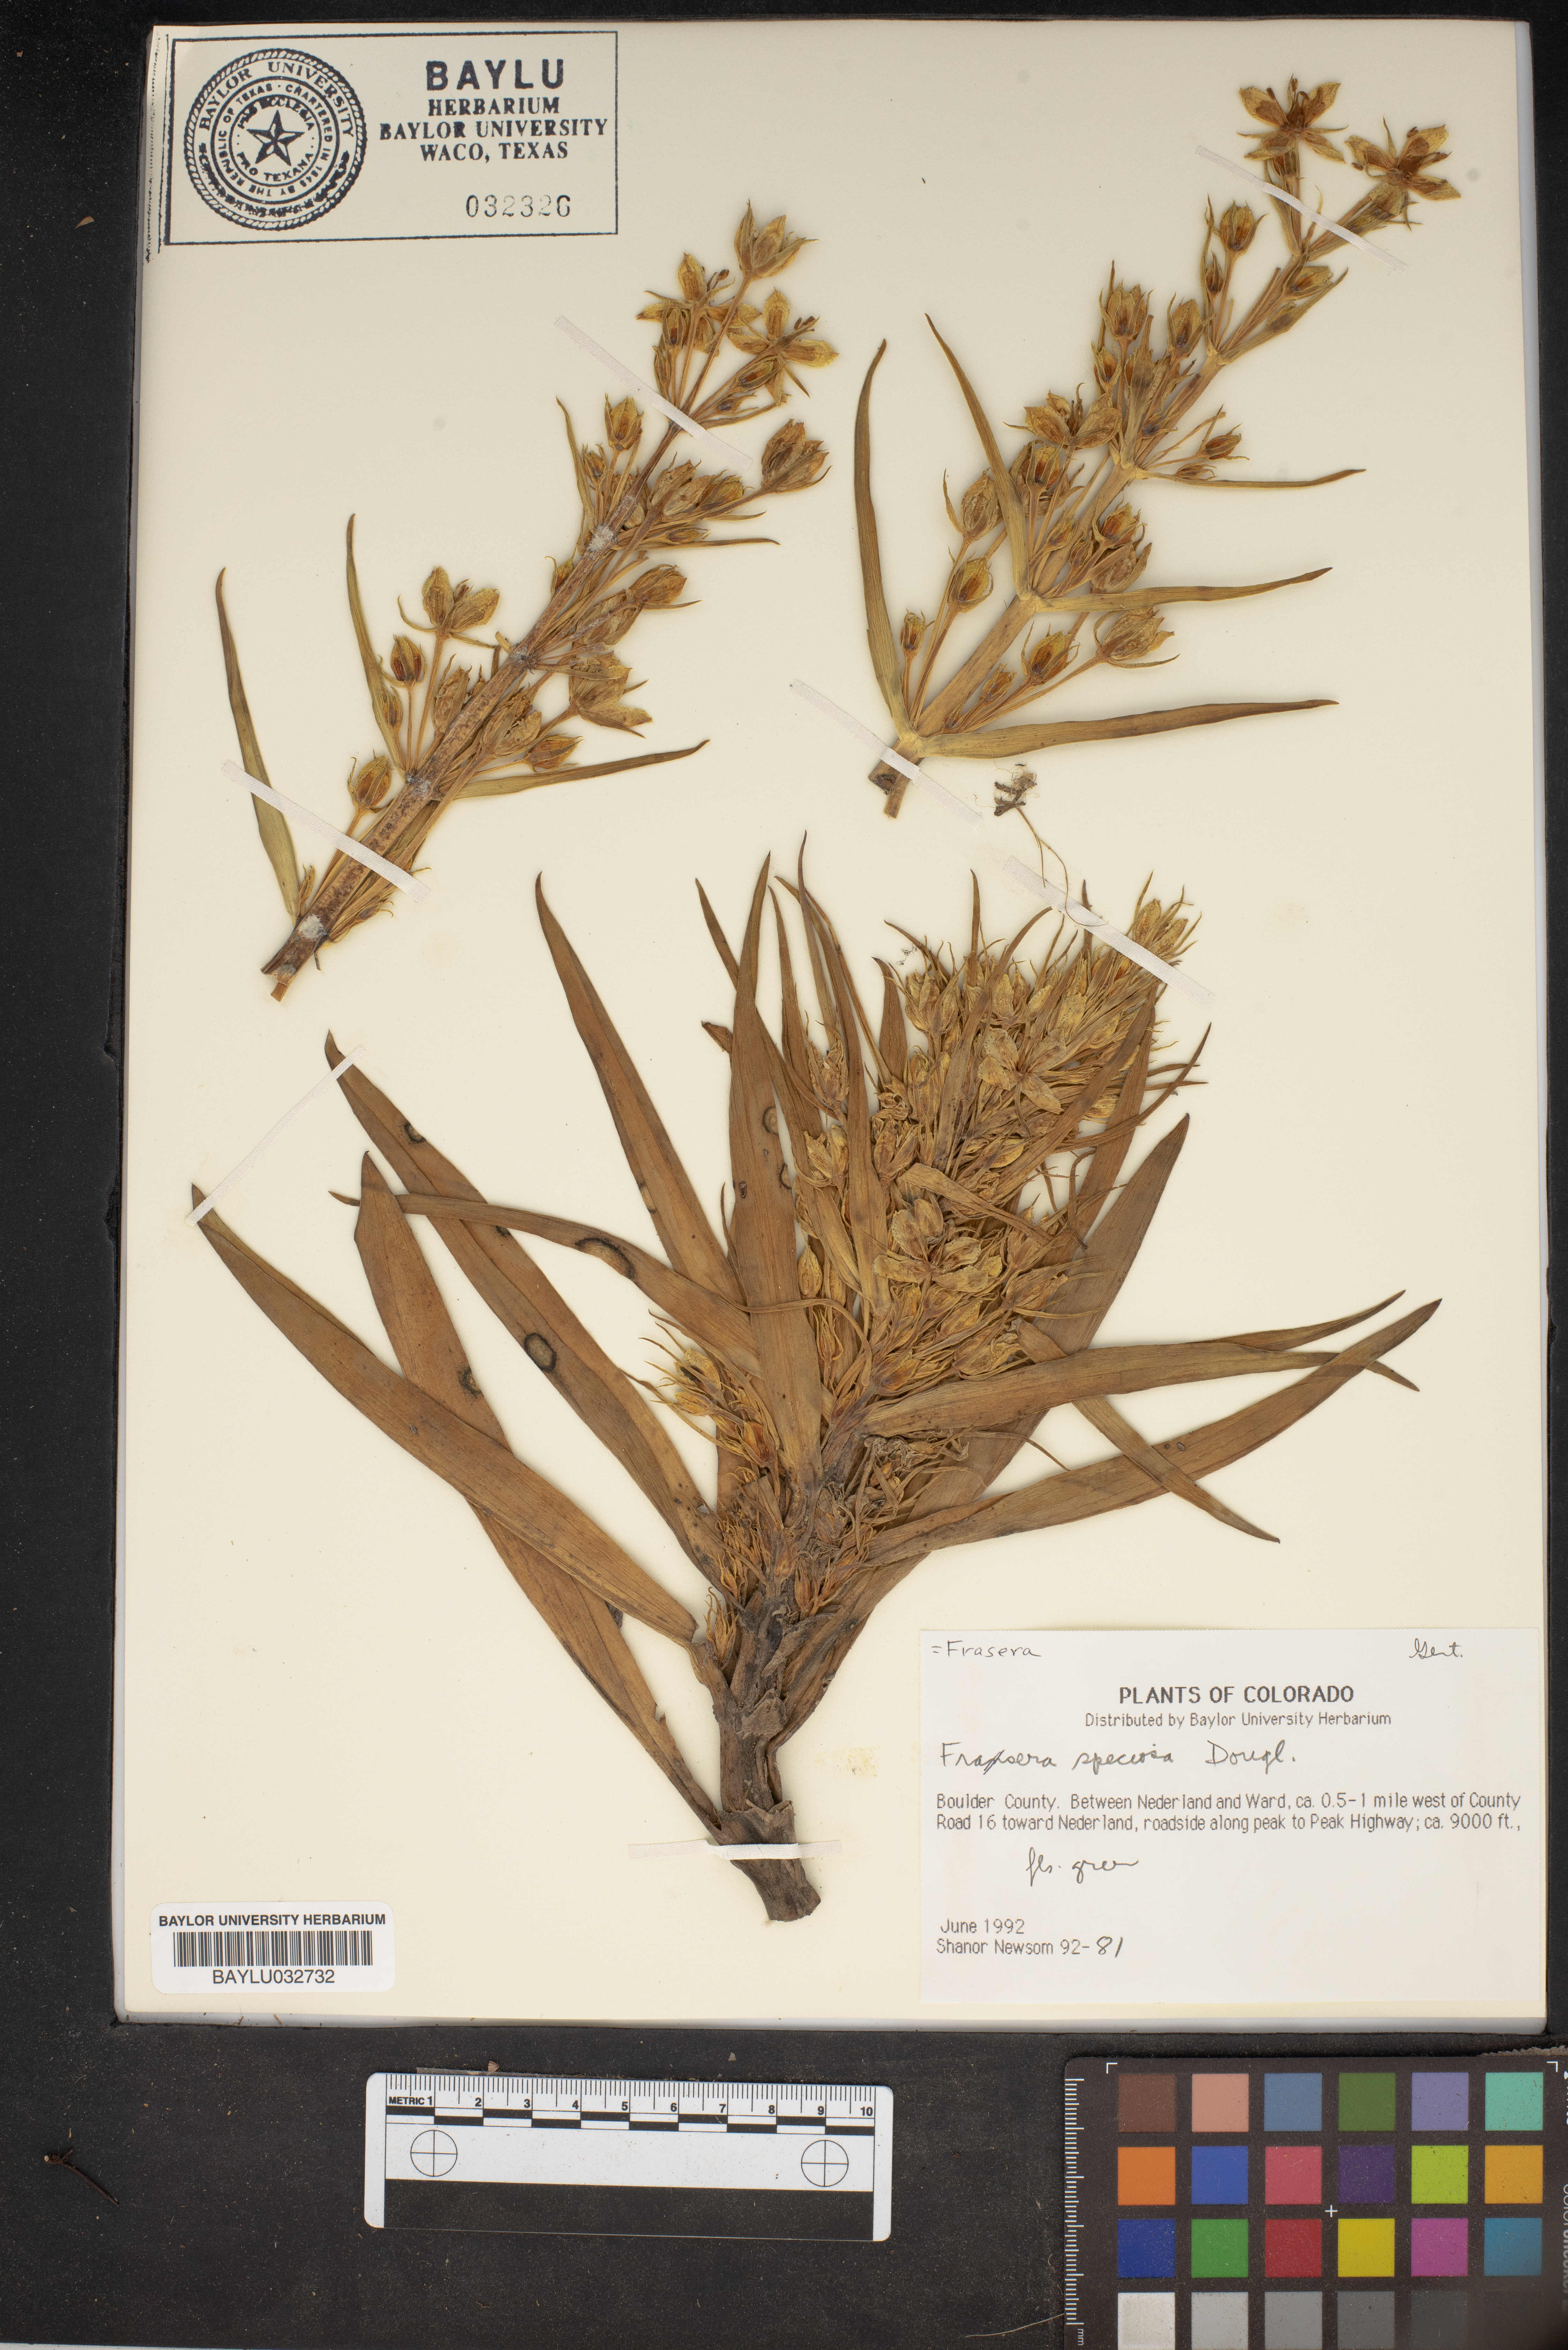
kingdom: Plantae
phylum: Tracheophyta
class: Magnoliopsida
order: Gentianales
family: Gentianaceae
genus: Frasera
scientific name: Frasera speciosa
